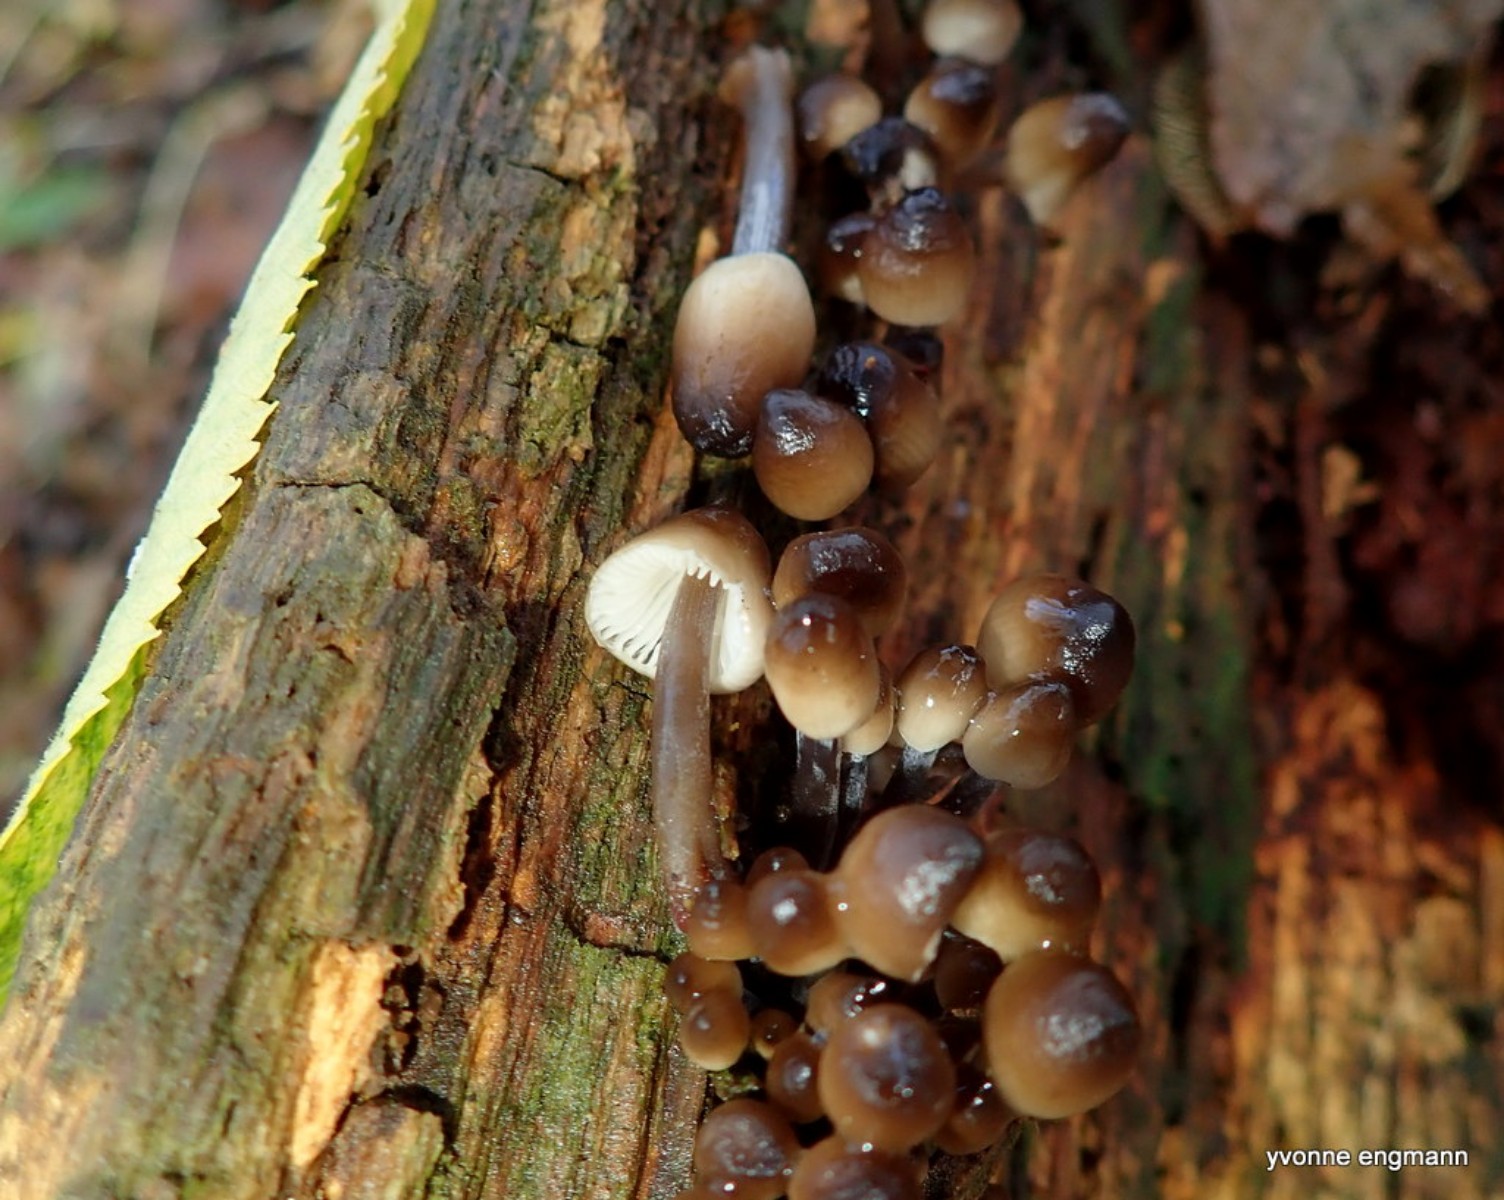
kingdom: Fungi
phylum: Basidiomycota
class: Agaricomycetes
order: Agaricales
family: Mycenaceae
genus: Mycena
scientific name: Mycena tintinnabulum
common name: vinter-huesvamp
